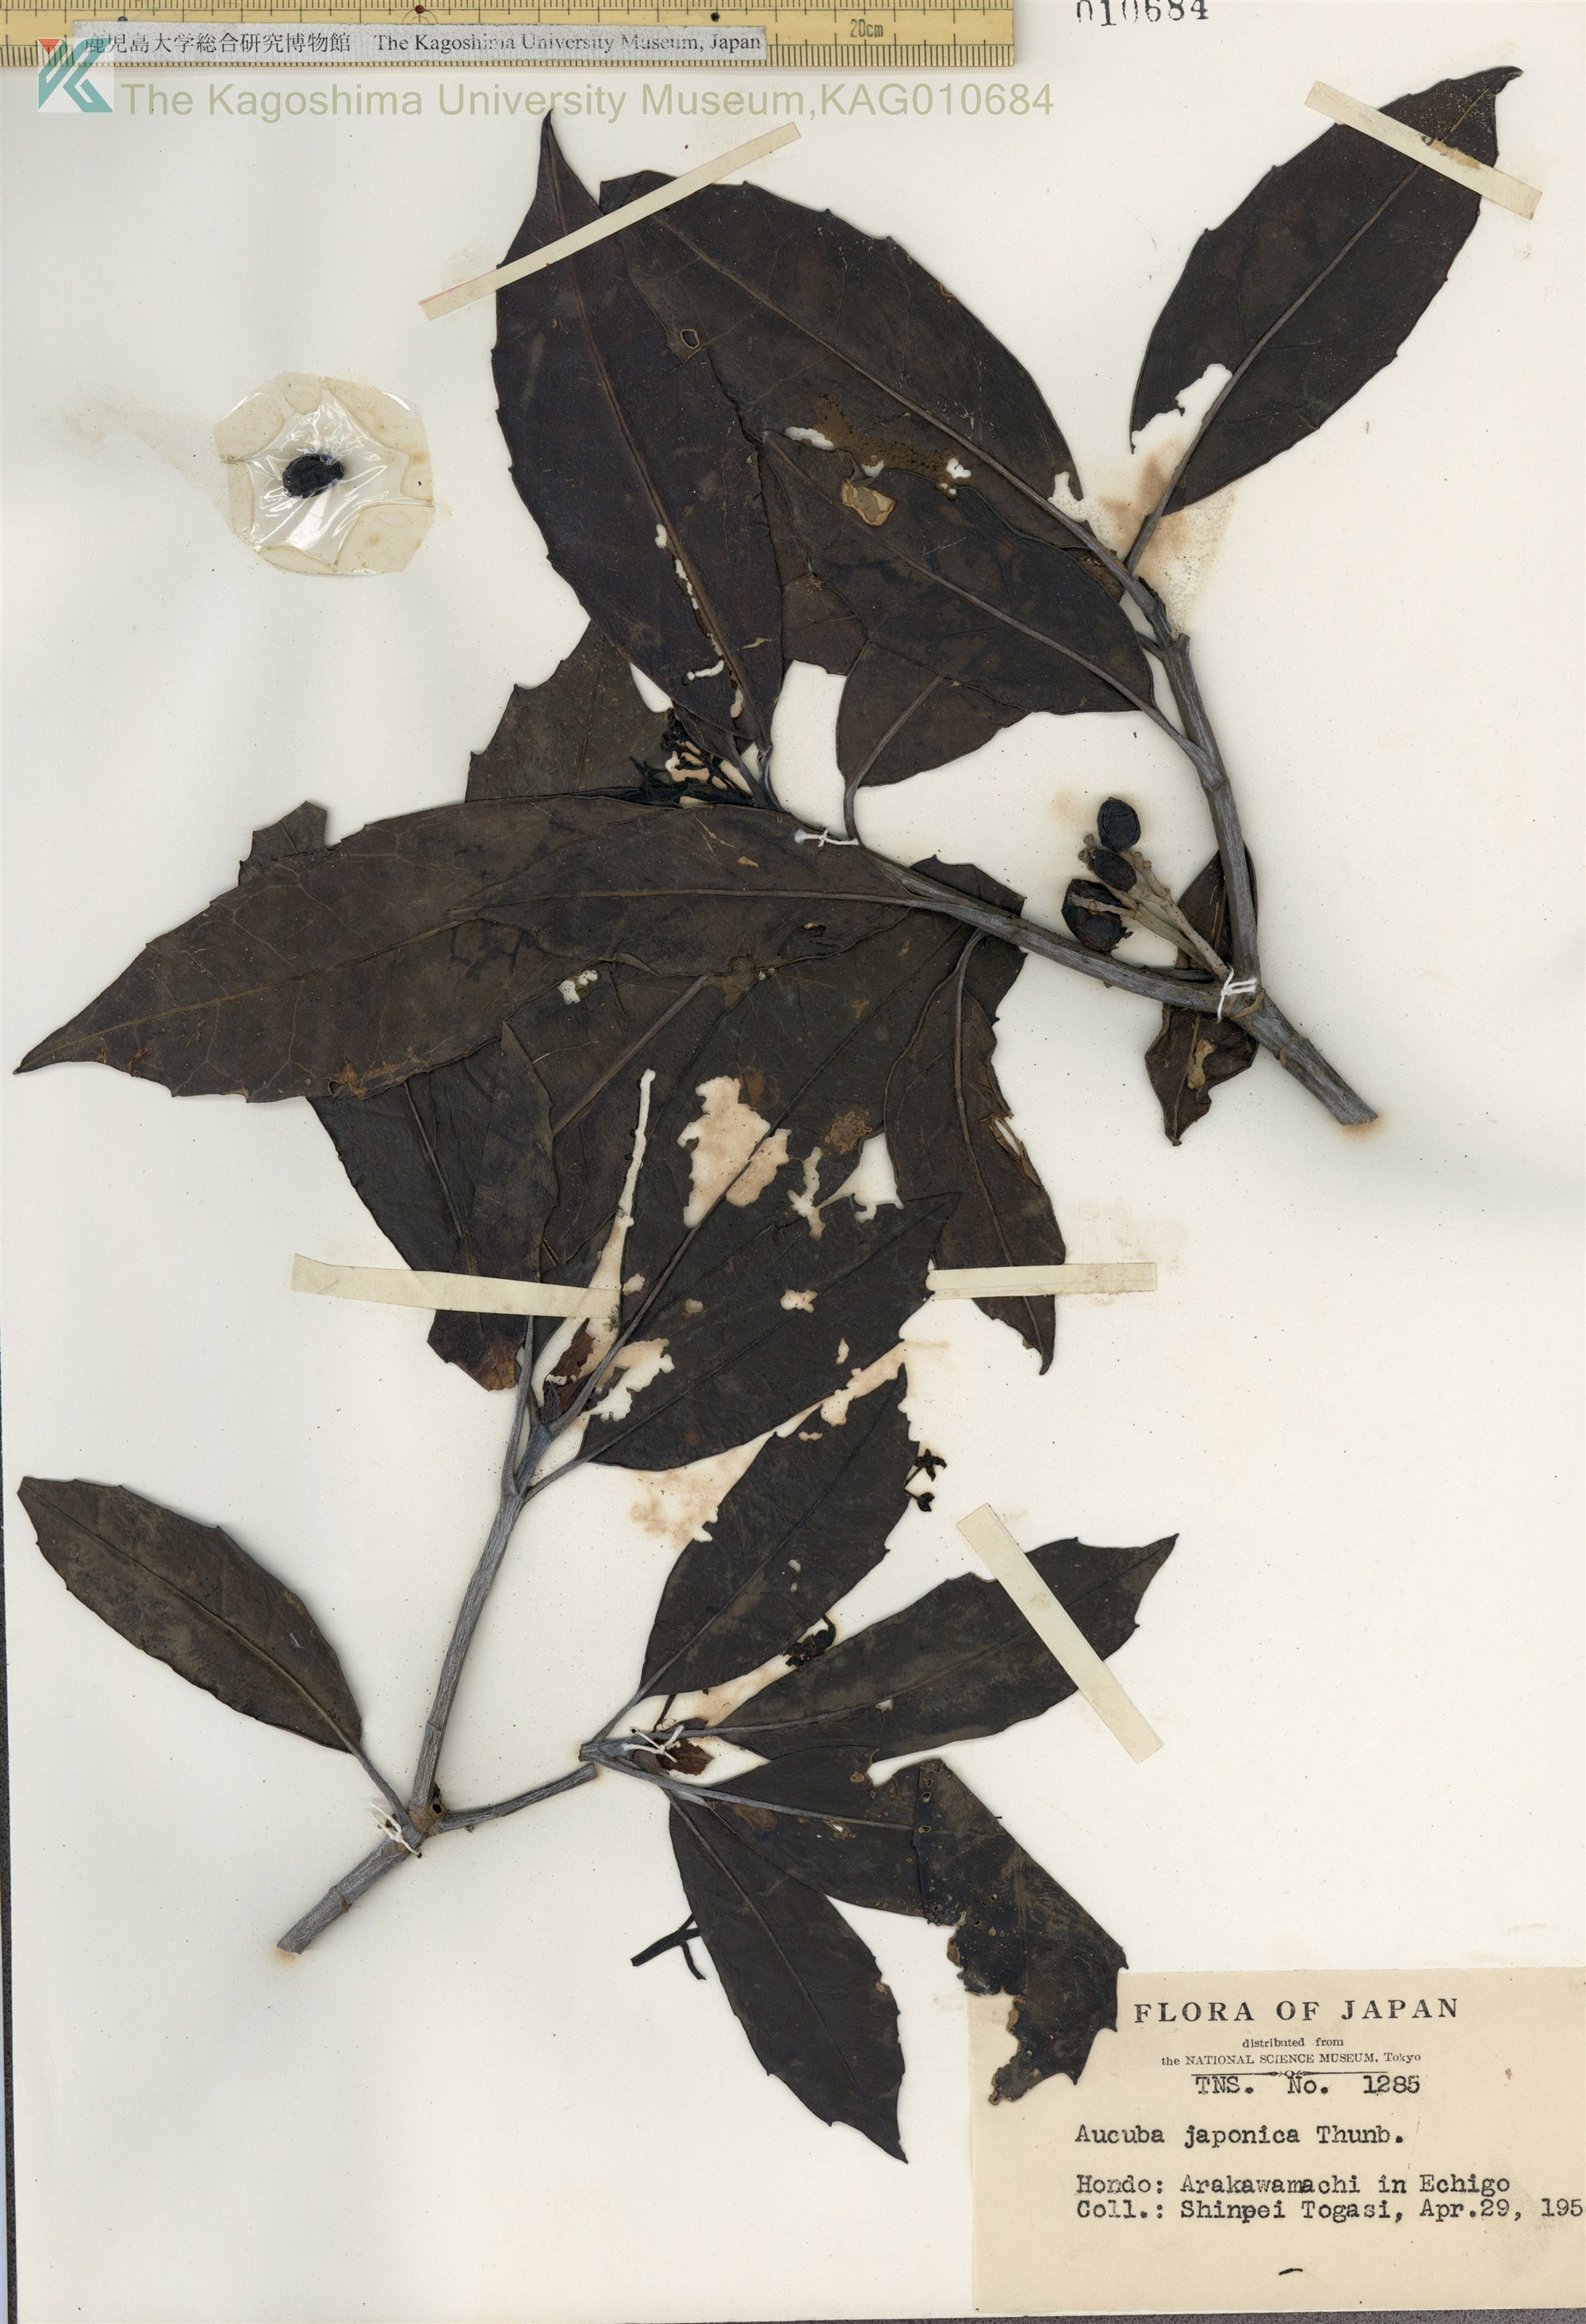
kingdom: Plantae
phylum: Tracheophyta
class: Magnoliopsida
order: Garryales
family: Garryaceae
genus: Aucuba
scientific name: Aucuba japonica
